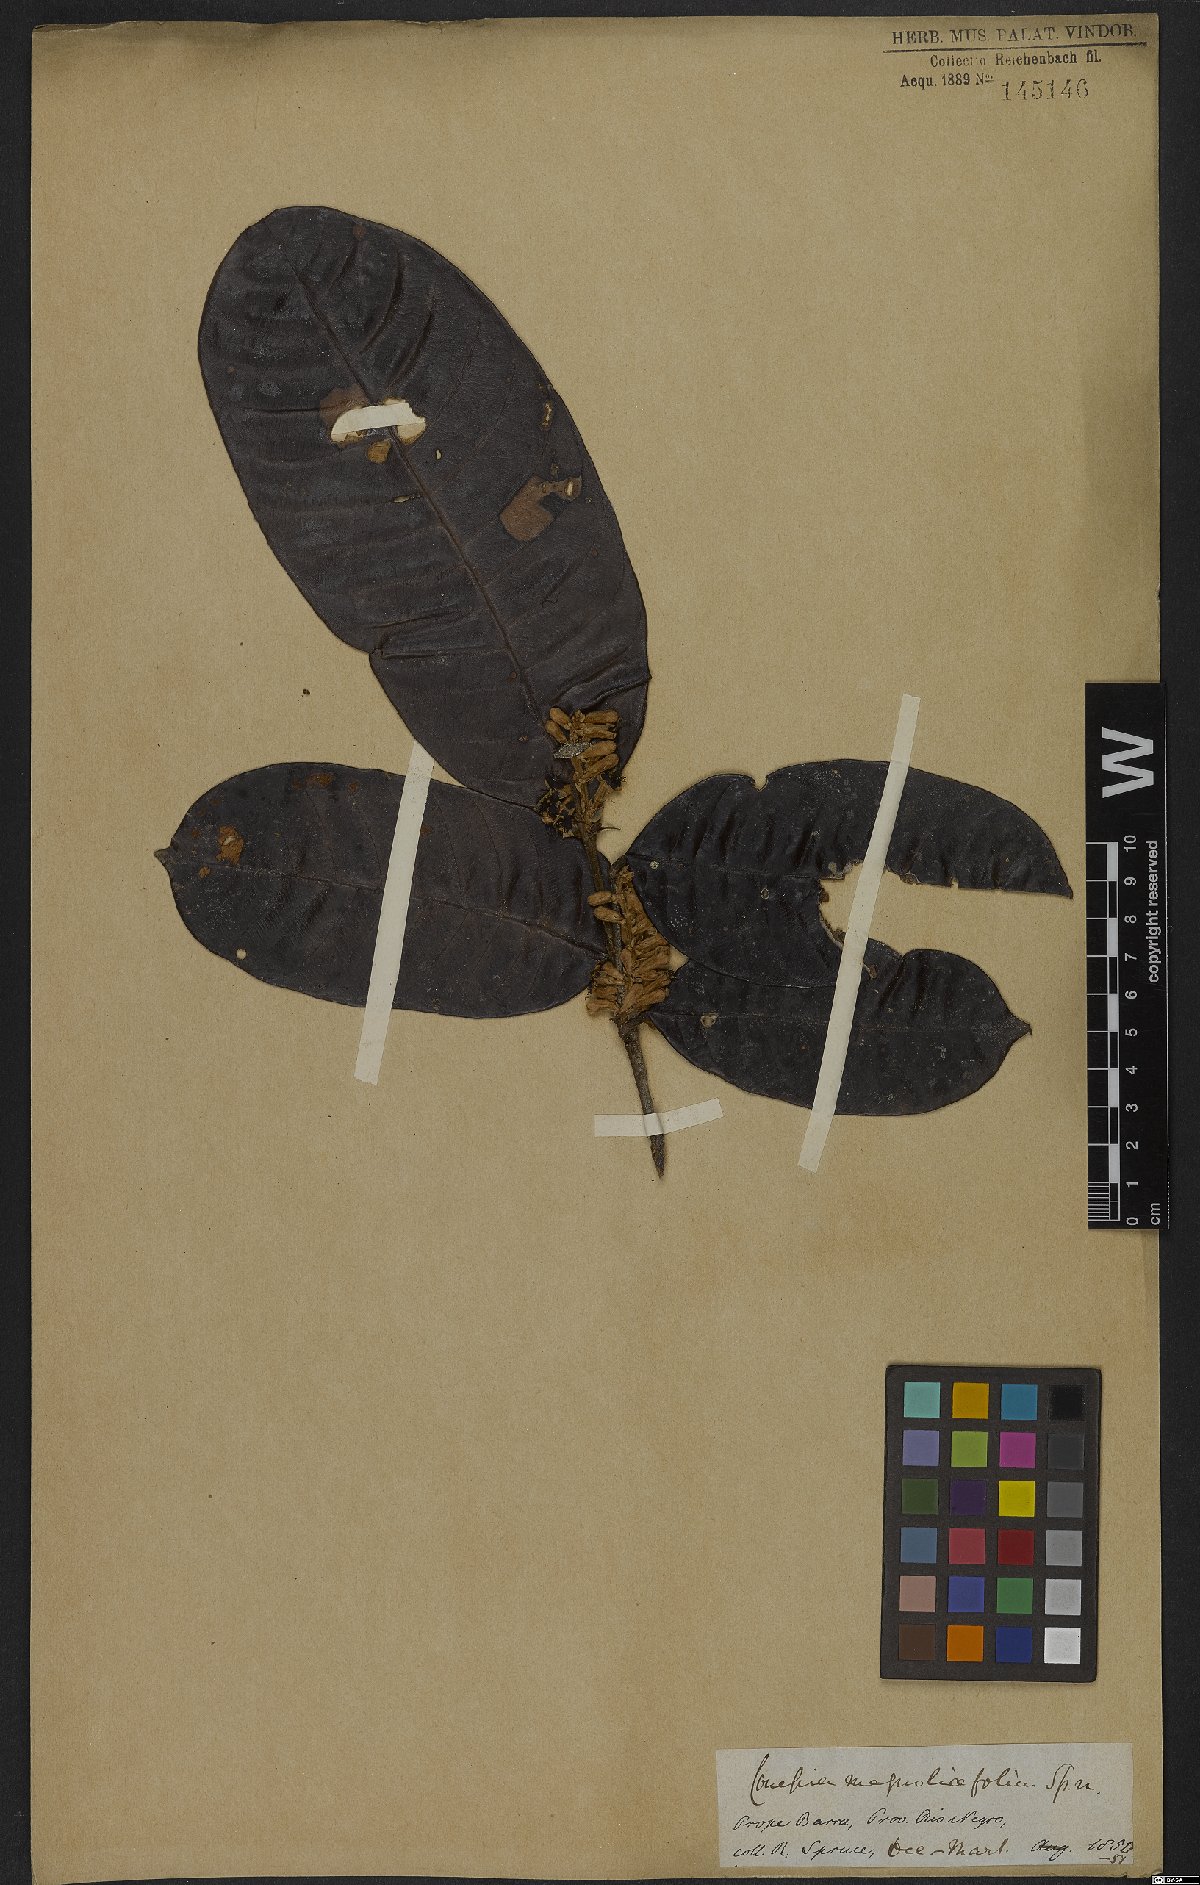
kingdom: Plantae
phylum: Tracheophyta
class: Magnoliopsida
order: Malpighiales
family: Chrysobalanaceae
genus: Couepia
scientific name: Couepia magnoliifolia
